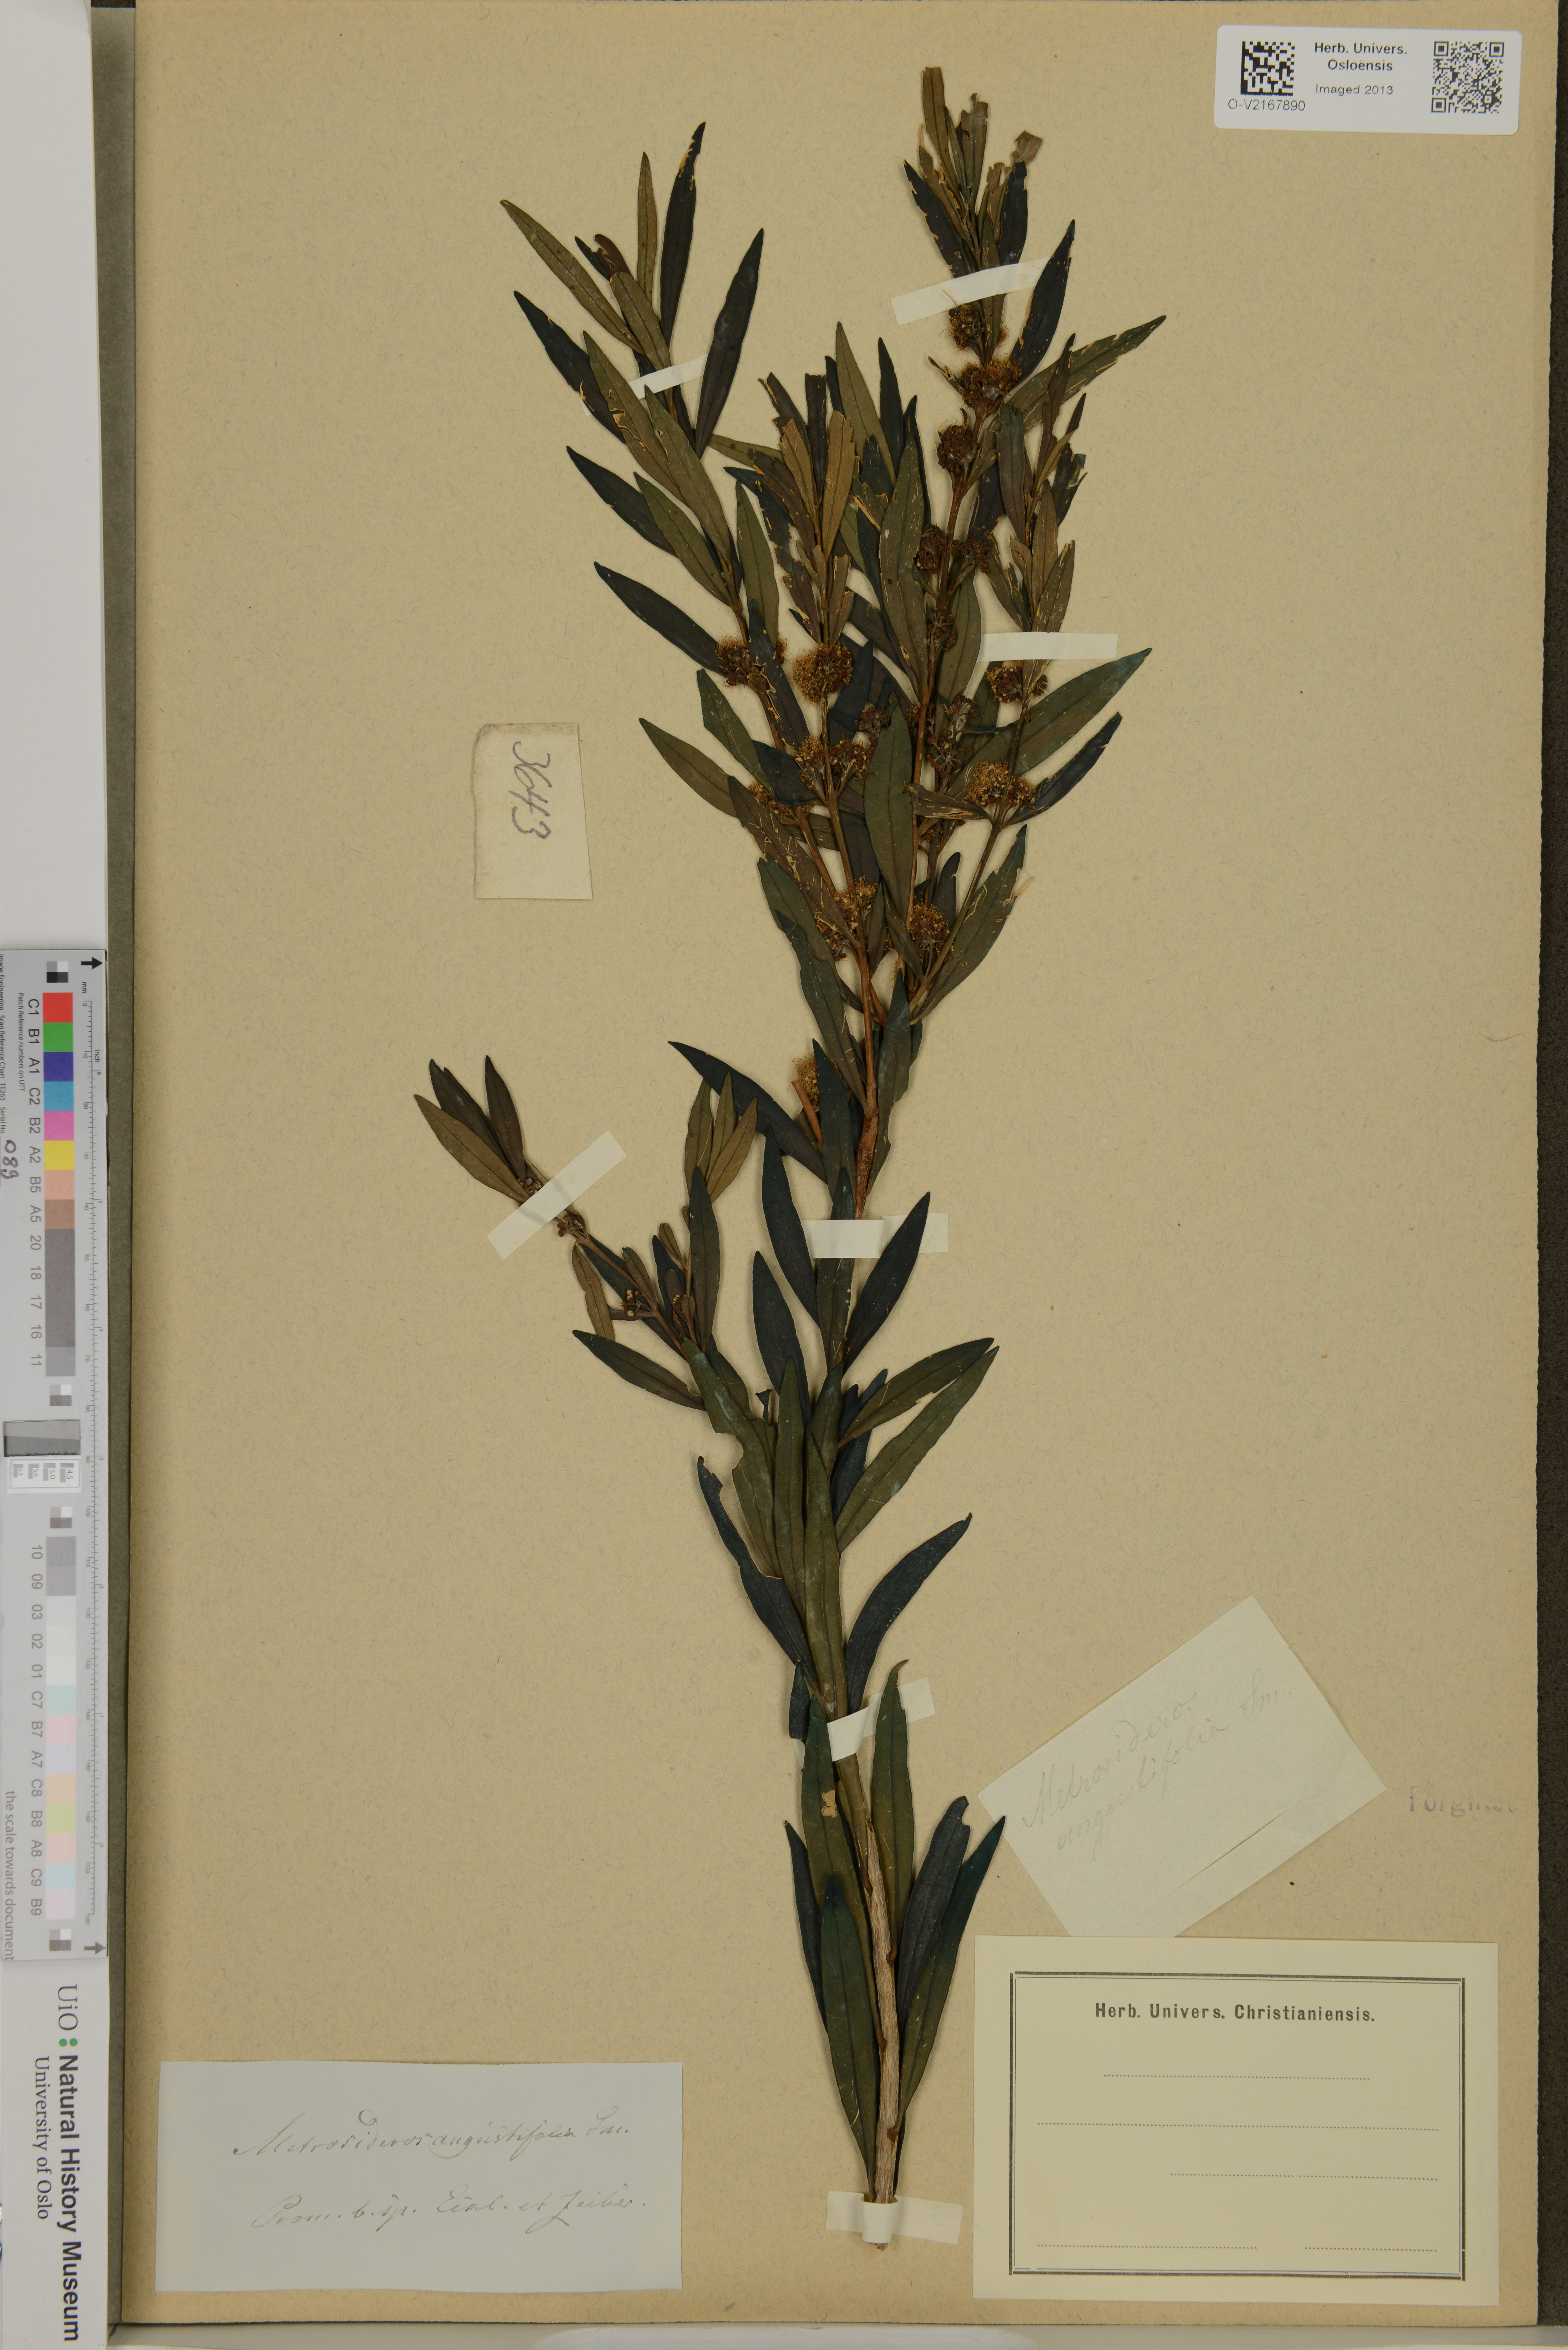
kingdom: Plantae
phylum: Tracheophyta
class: Magnoliopsida
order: Myrtales
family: Myrtaceae
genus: Callistemon
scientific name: Callistemon lanceolatus
